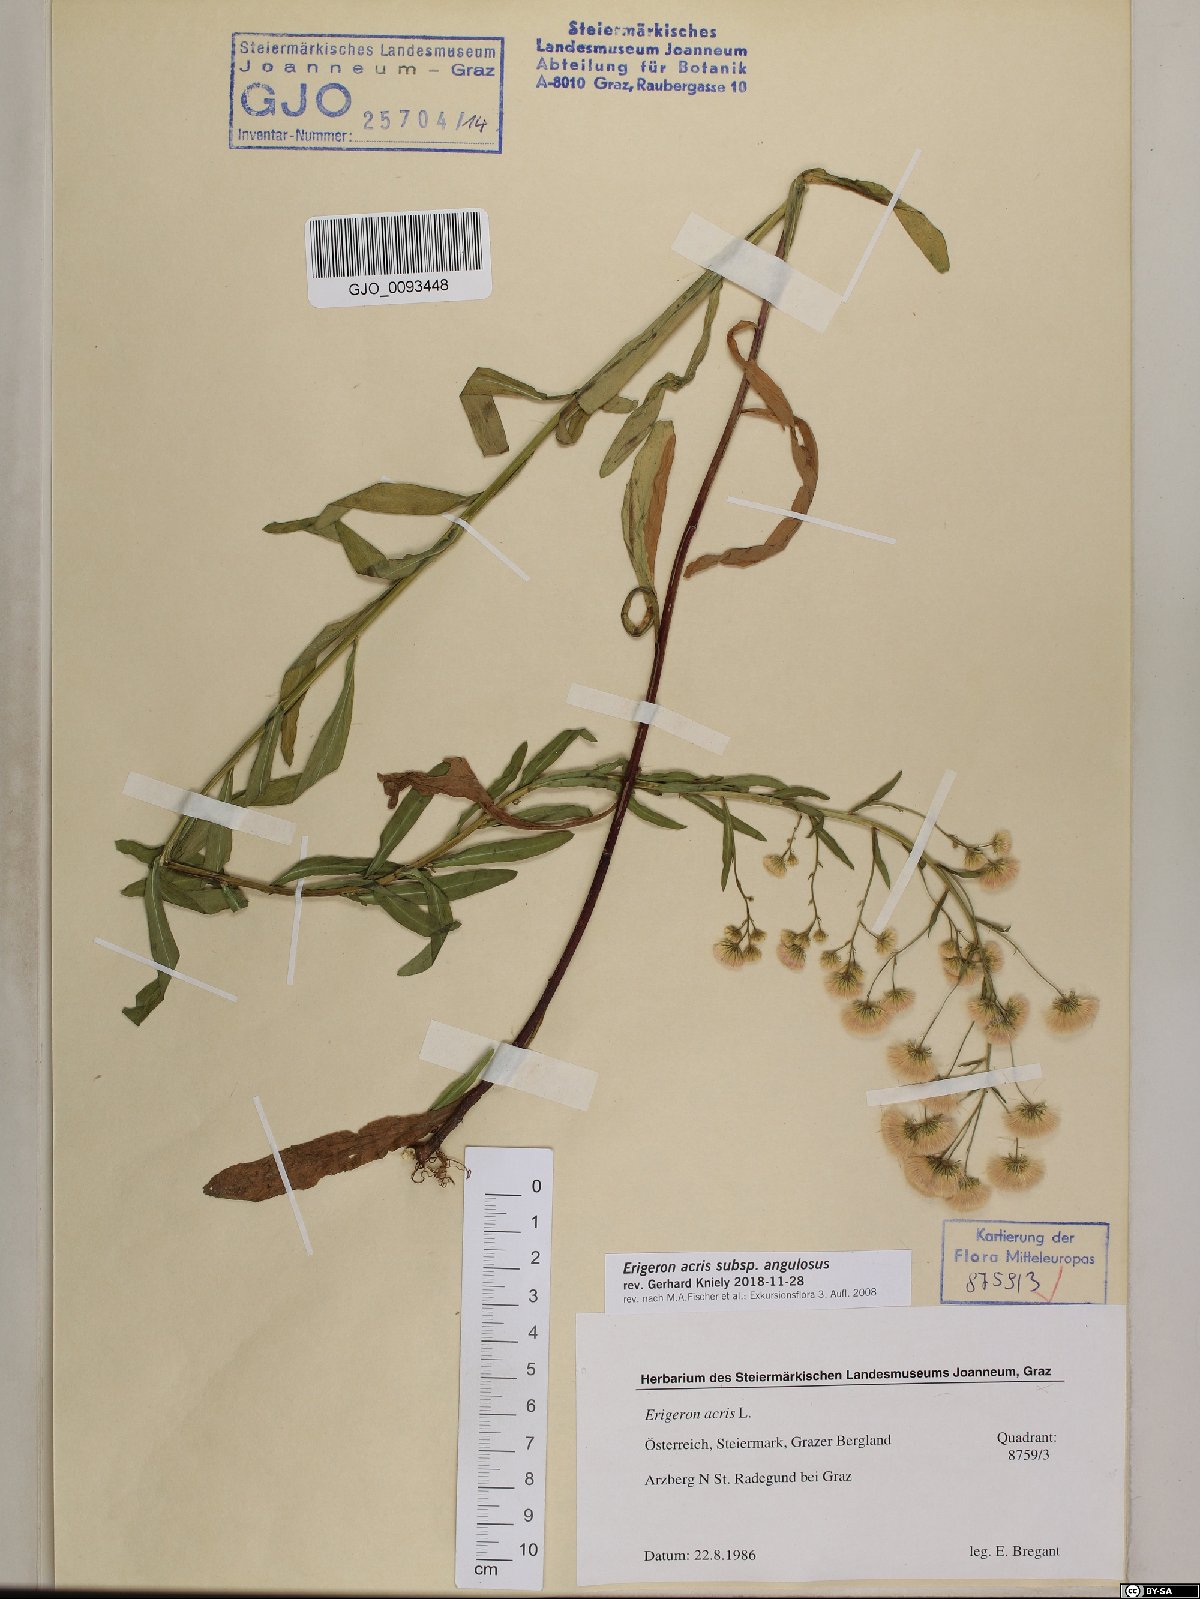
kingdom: Plantae
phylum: Tracheophyta
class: Magnoliopsida
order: Asterales
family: Asteraceae
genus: Erigeron
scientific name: Erigeron angulosus
